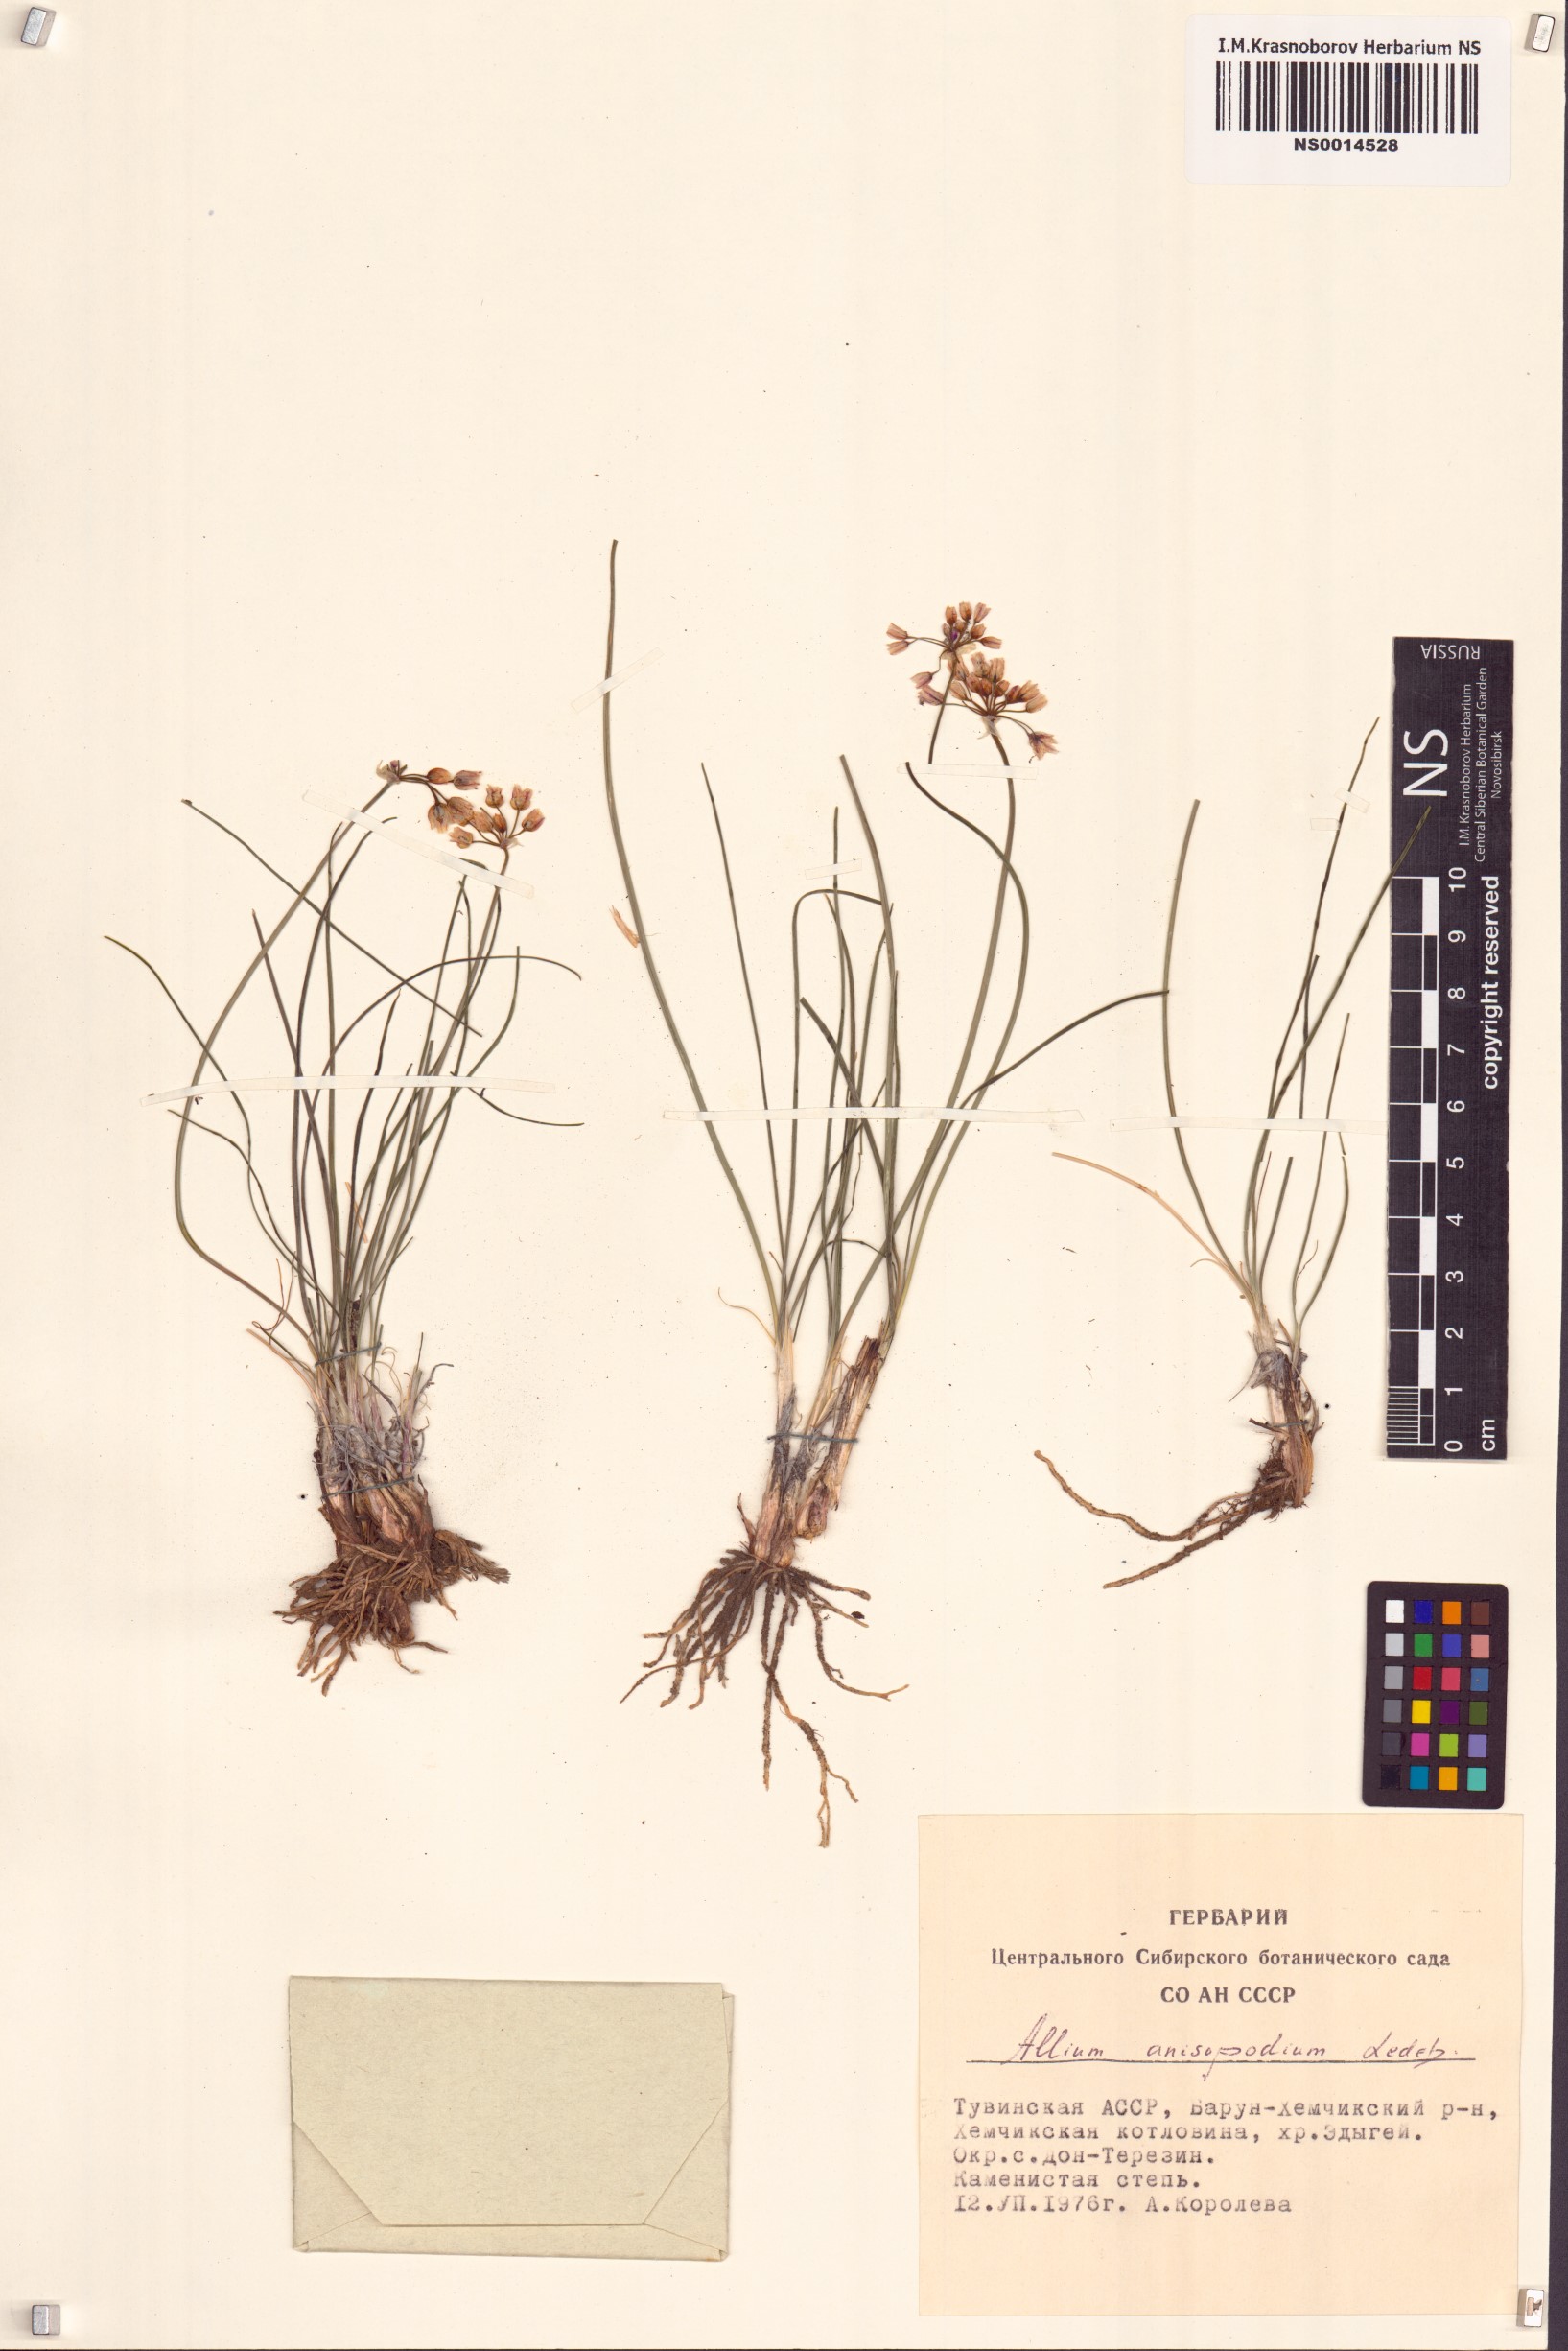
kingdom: Plantae
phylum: Tracheophyta
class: Liliopsida
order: Asparagales
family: Amaryllidaceae
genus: Allium
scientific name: Allium anisopodium
